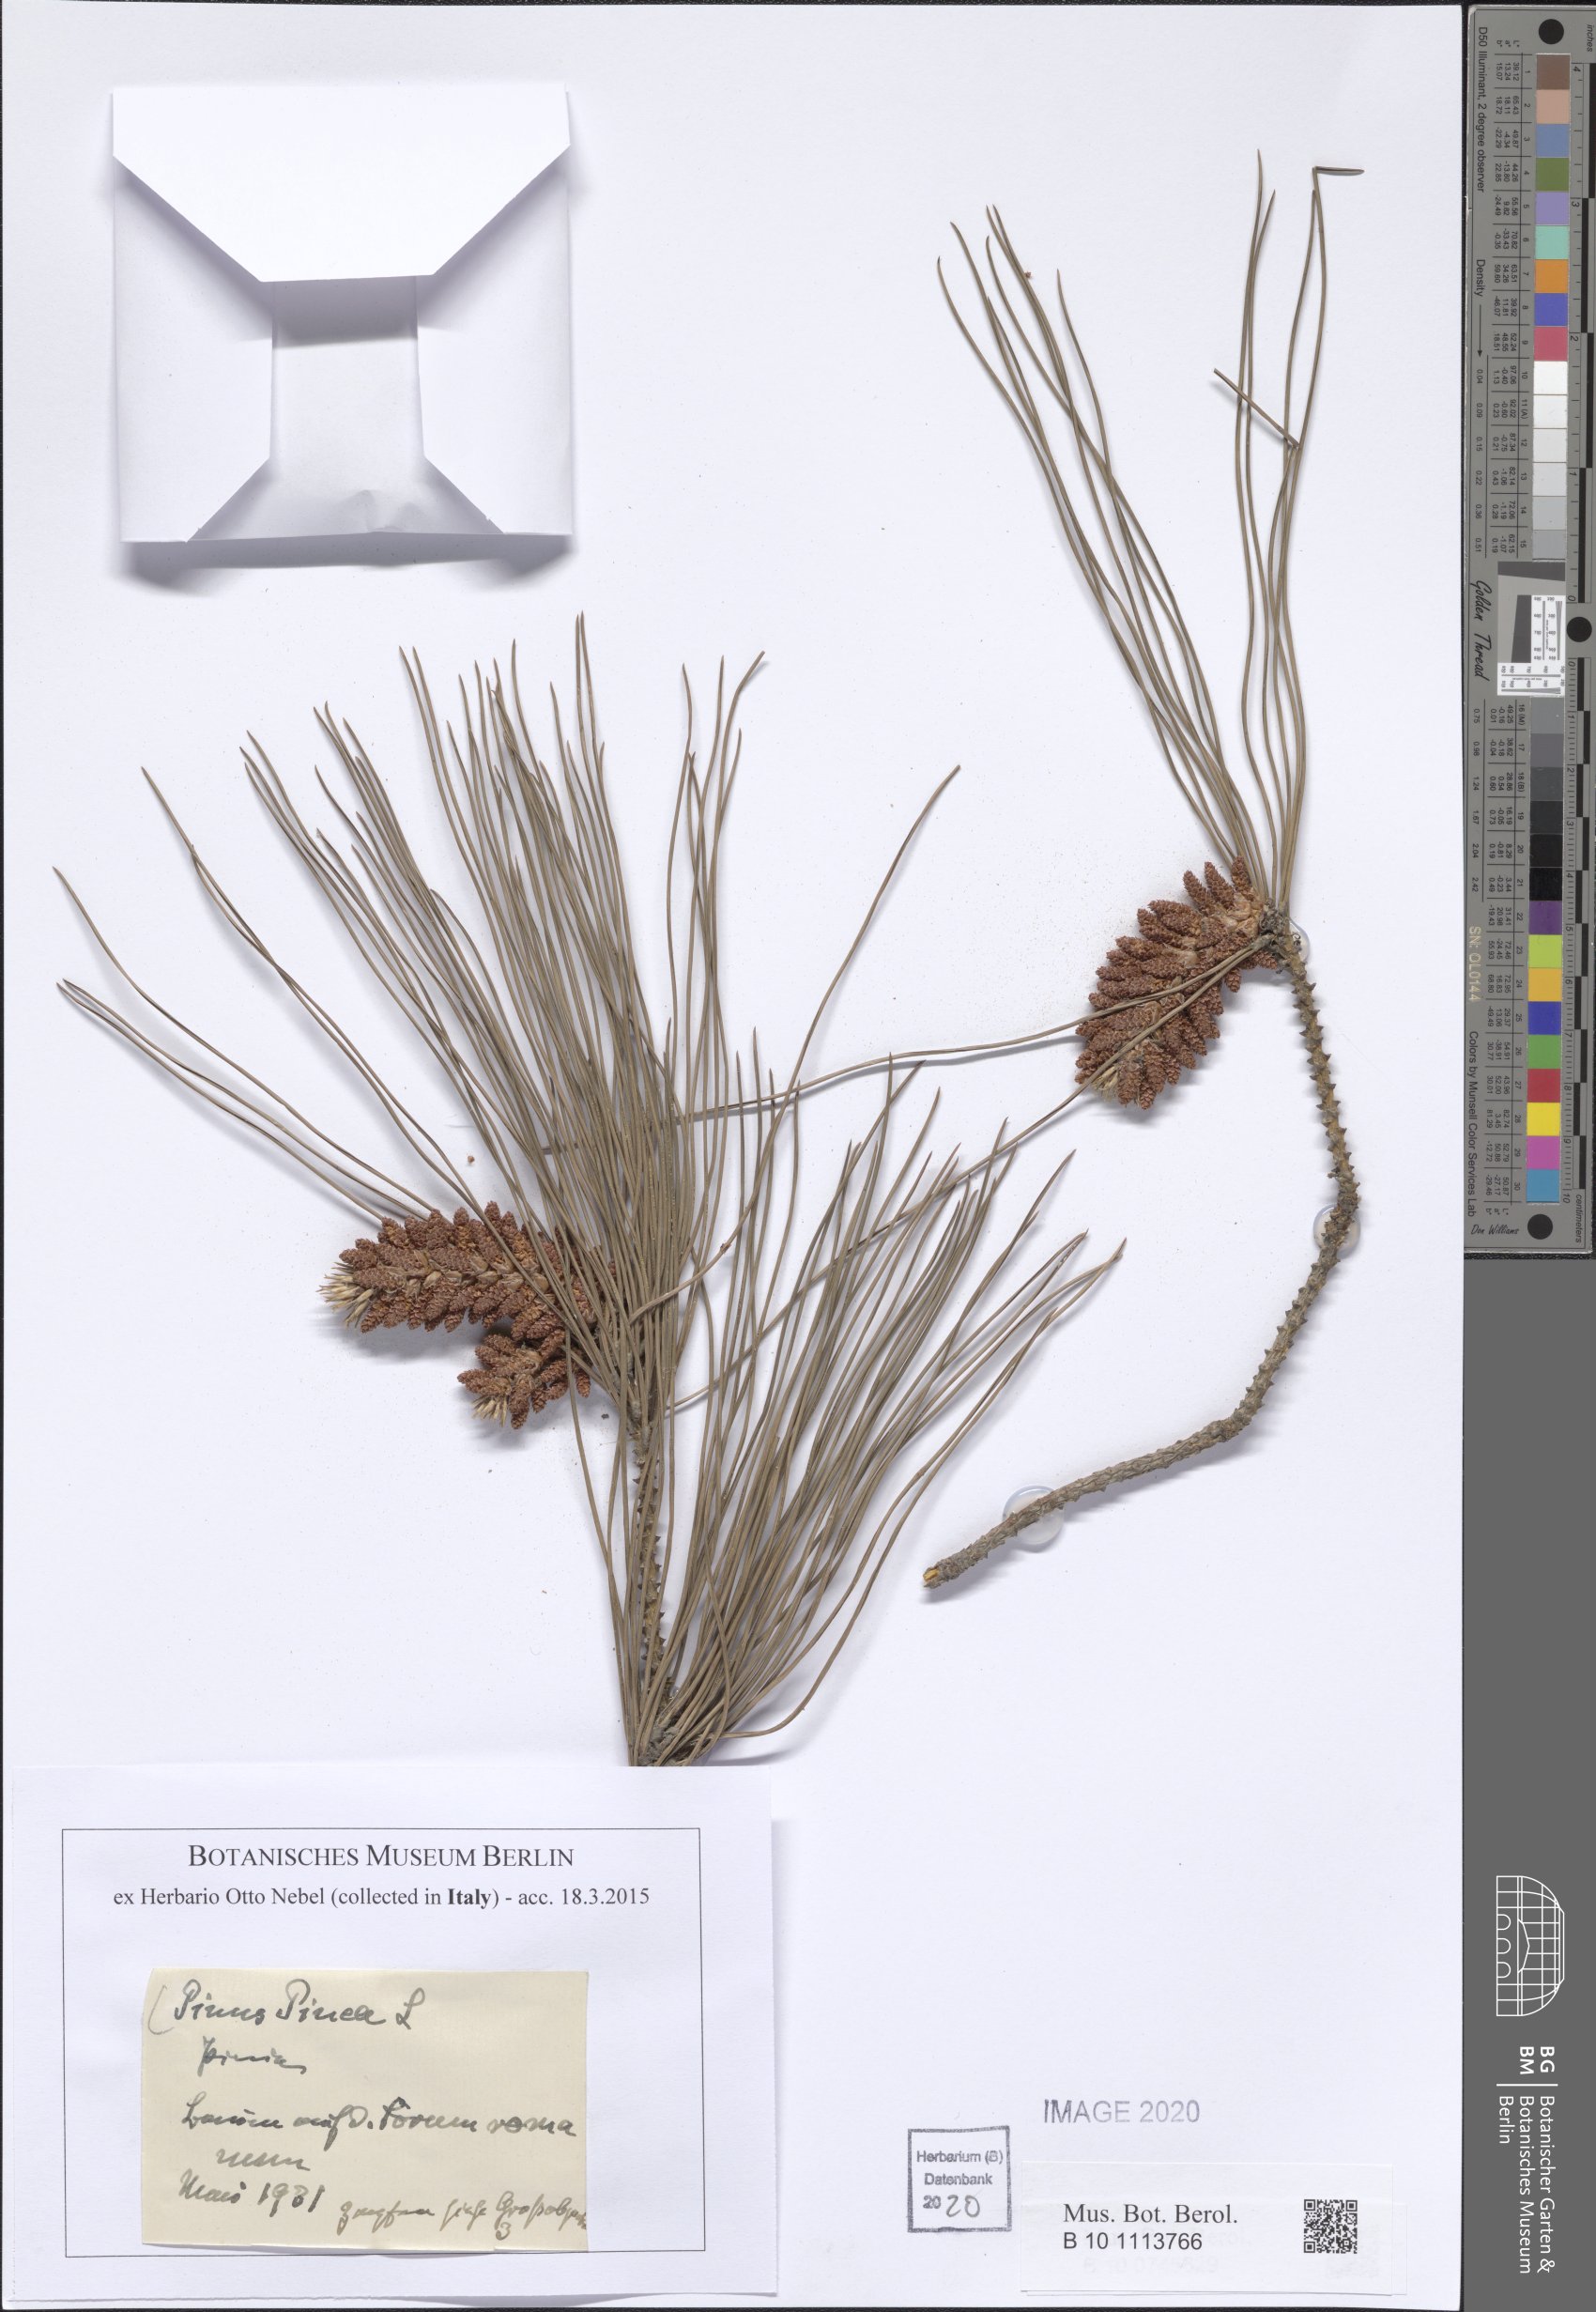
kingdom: Plantae
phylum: Tracheophyta
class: Pinopsida
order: Pinales
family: Pinaceae
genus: Pinus
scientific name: Pinus pinea
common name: Italian stone pine
